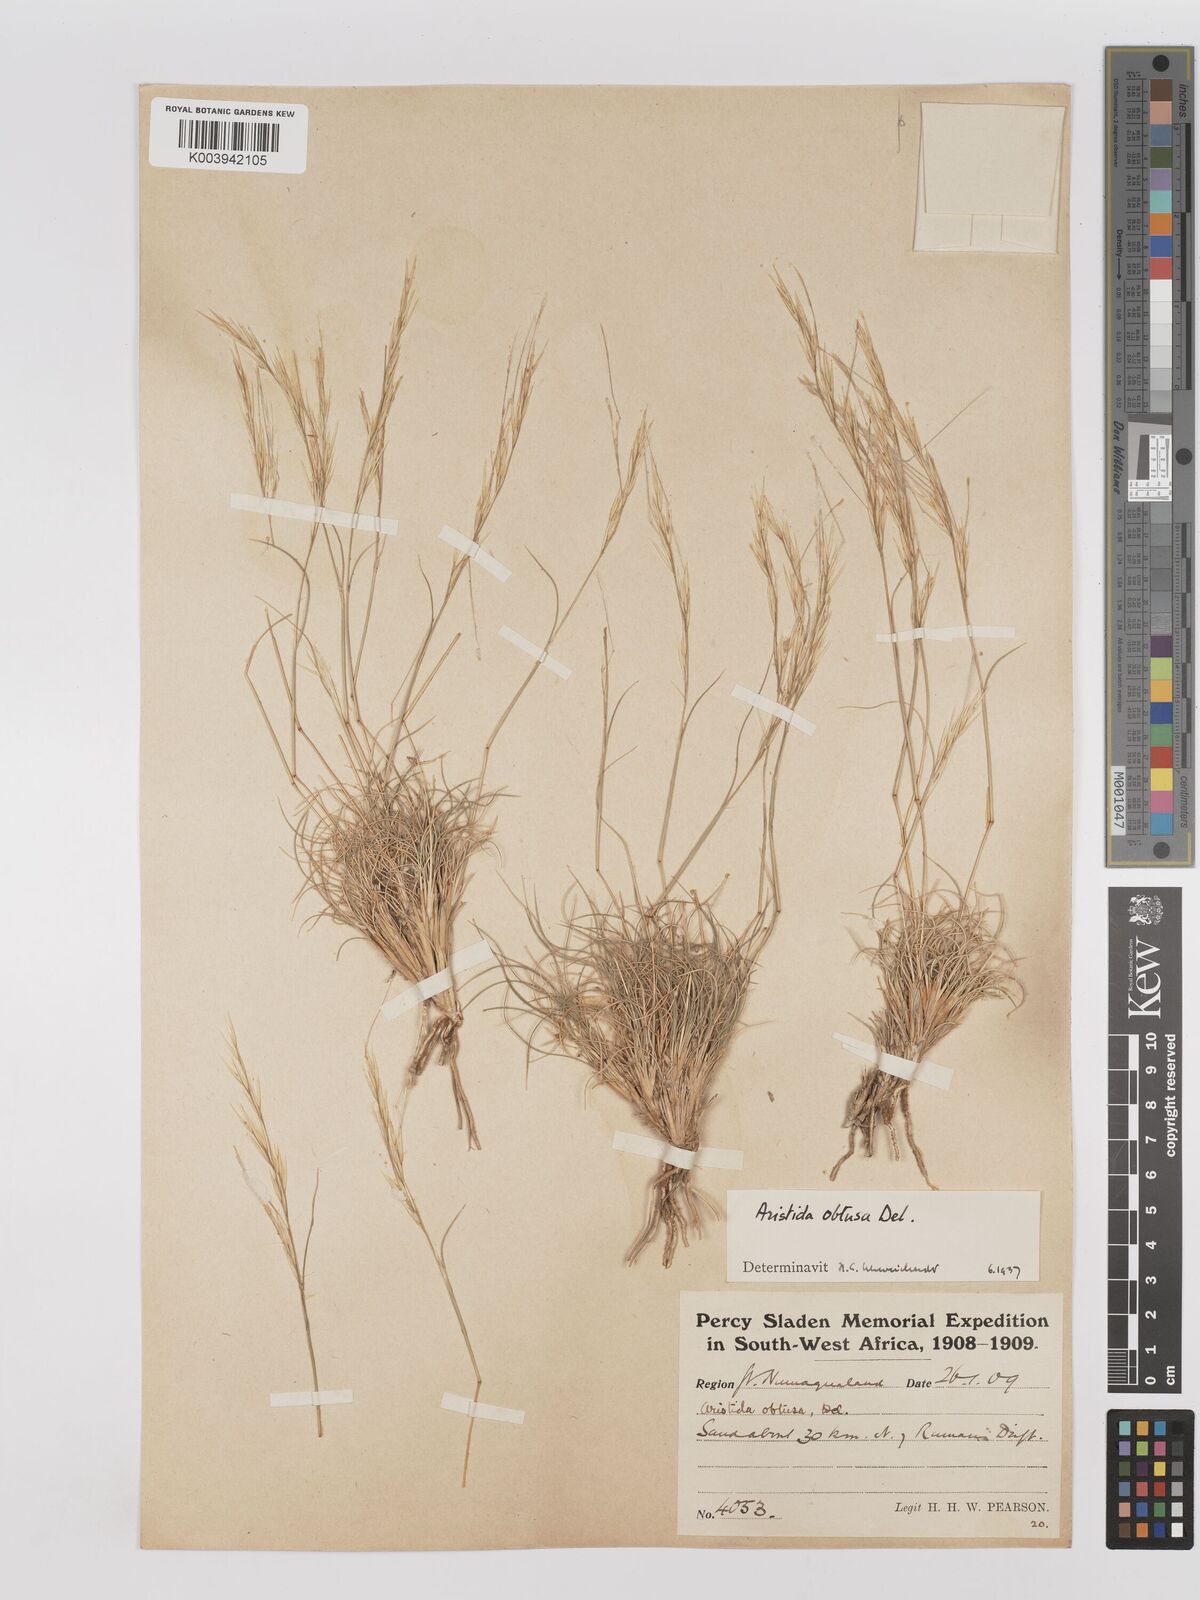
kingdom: Plantae
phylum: Tracheophyta
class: Liliopsida
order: Poales
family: Poaceae
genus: Stipagrostis
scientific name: Stipagrostis obtusa
